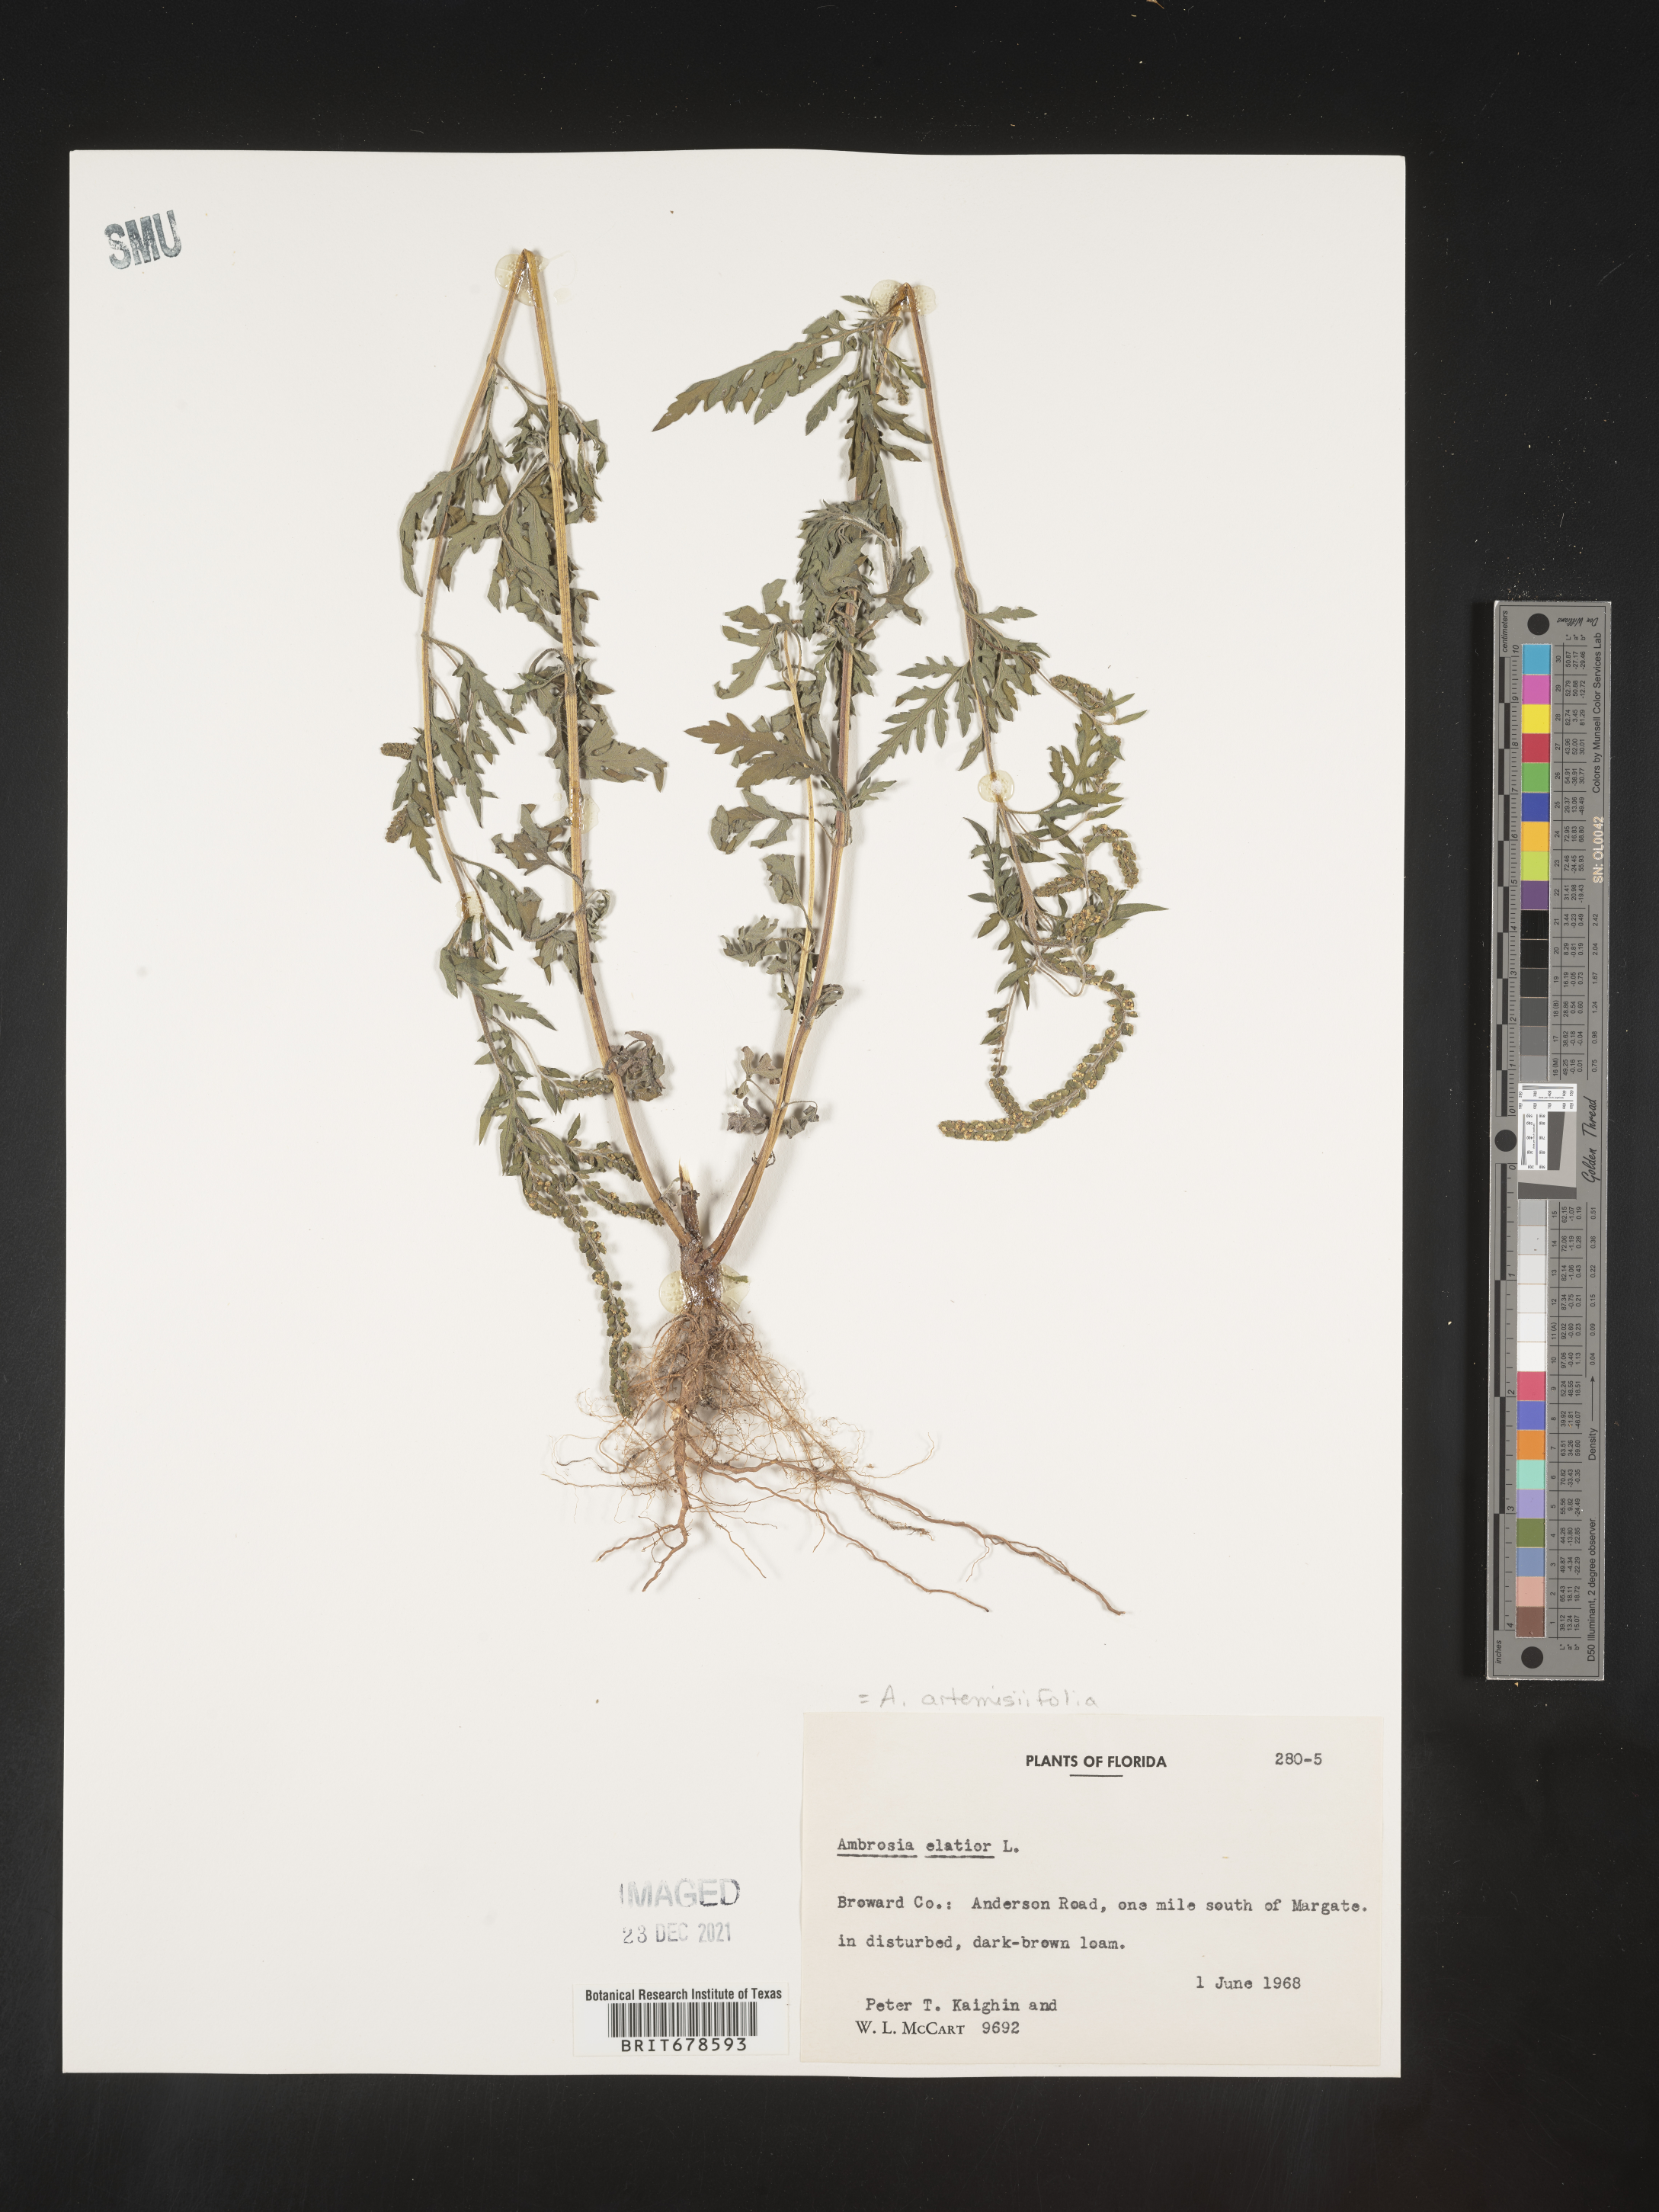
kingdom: Plantae
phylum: Tracheophyta
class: Magnoliopsida
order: Asterales
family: Asteraceae
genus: Ambrosia
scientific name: Ambrosia polystachya
